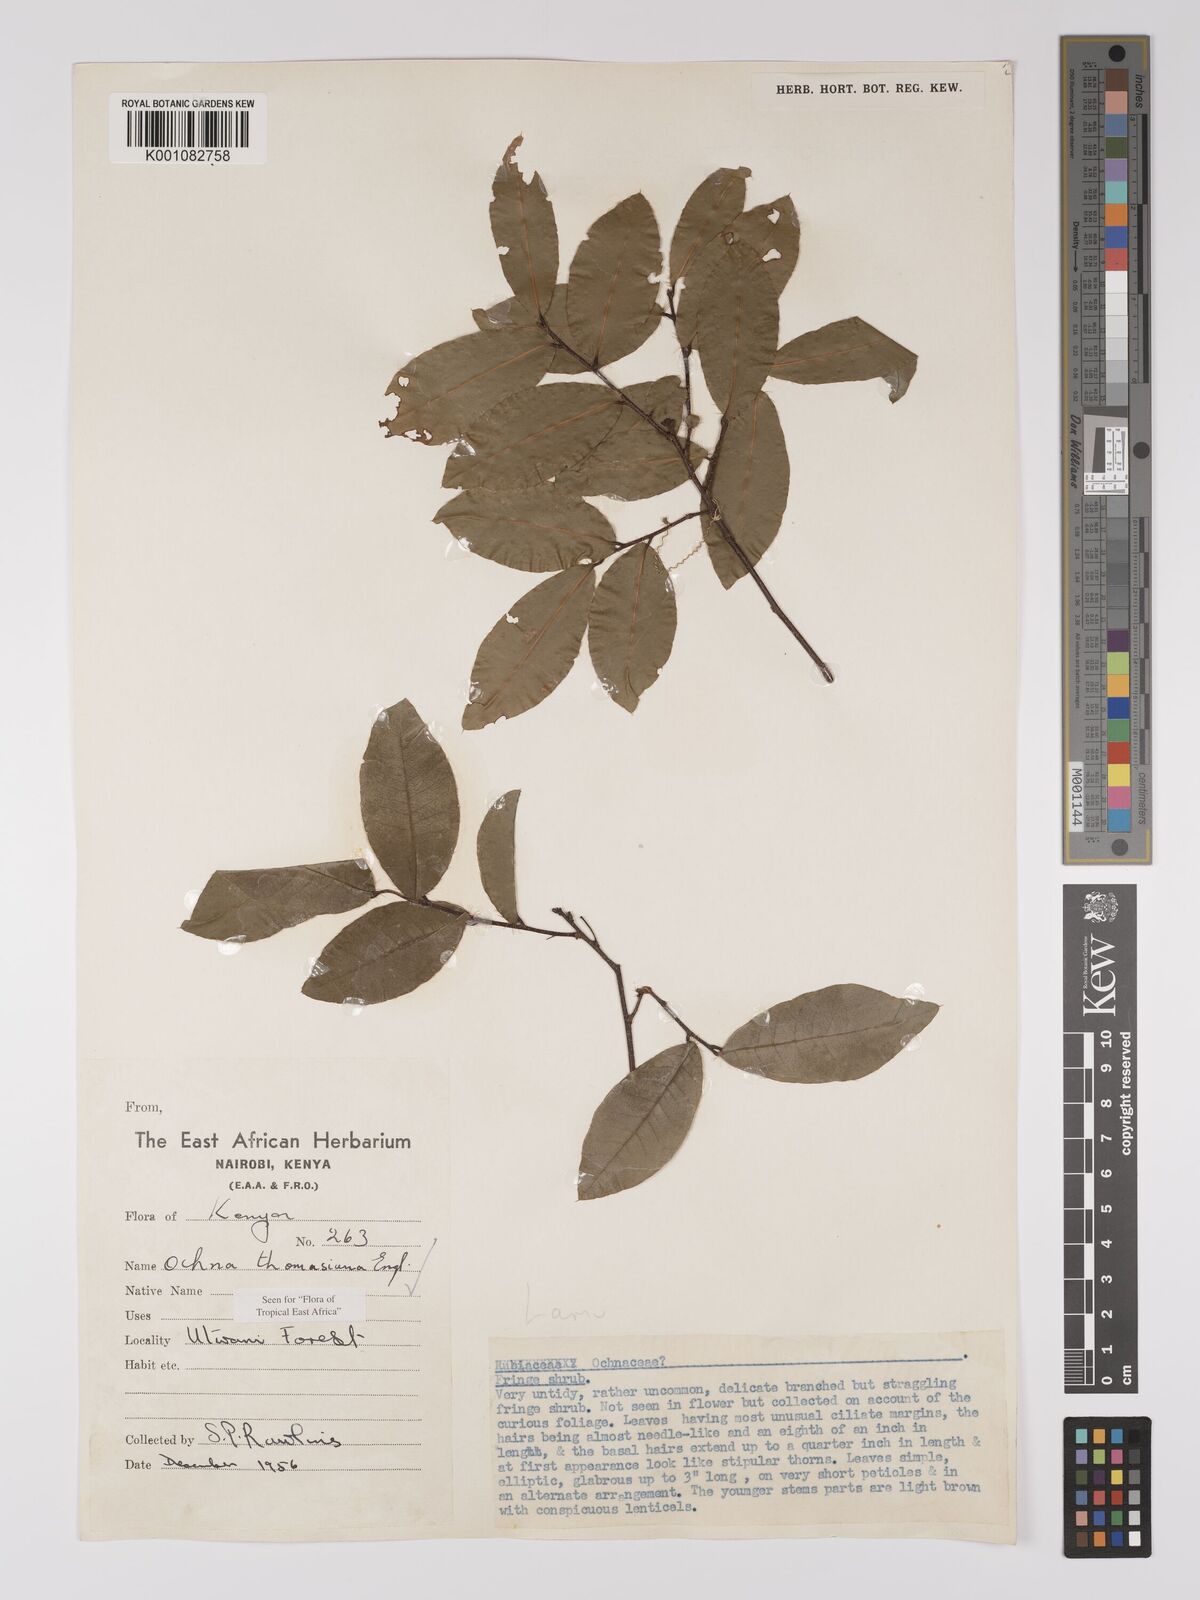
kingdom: Plantae
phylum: Tracheophyta
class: Magnoliopsida
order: Malpighiales
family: Ochnaceae
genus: Ochna
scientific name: Ochna thomasiana
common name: Thomas' bird's-eye bush
